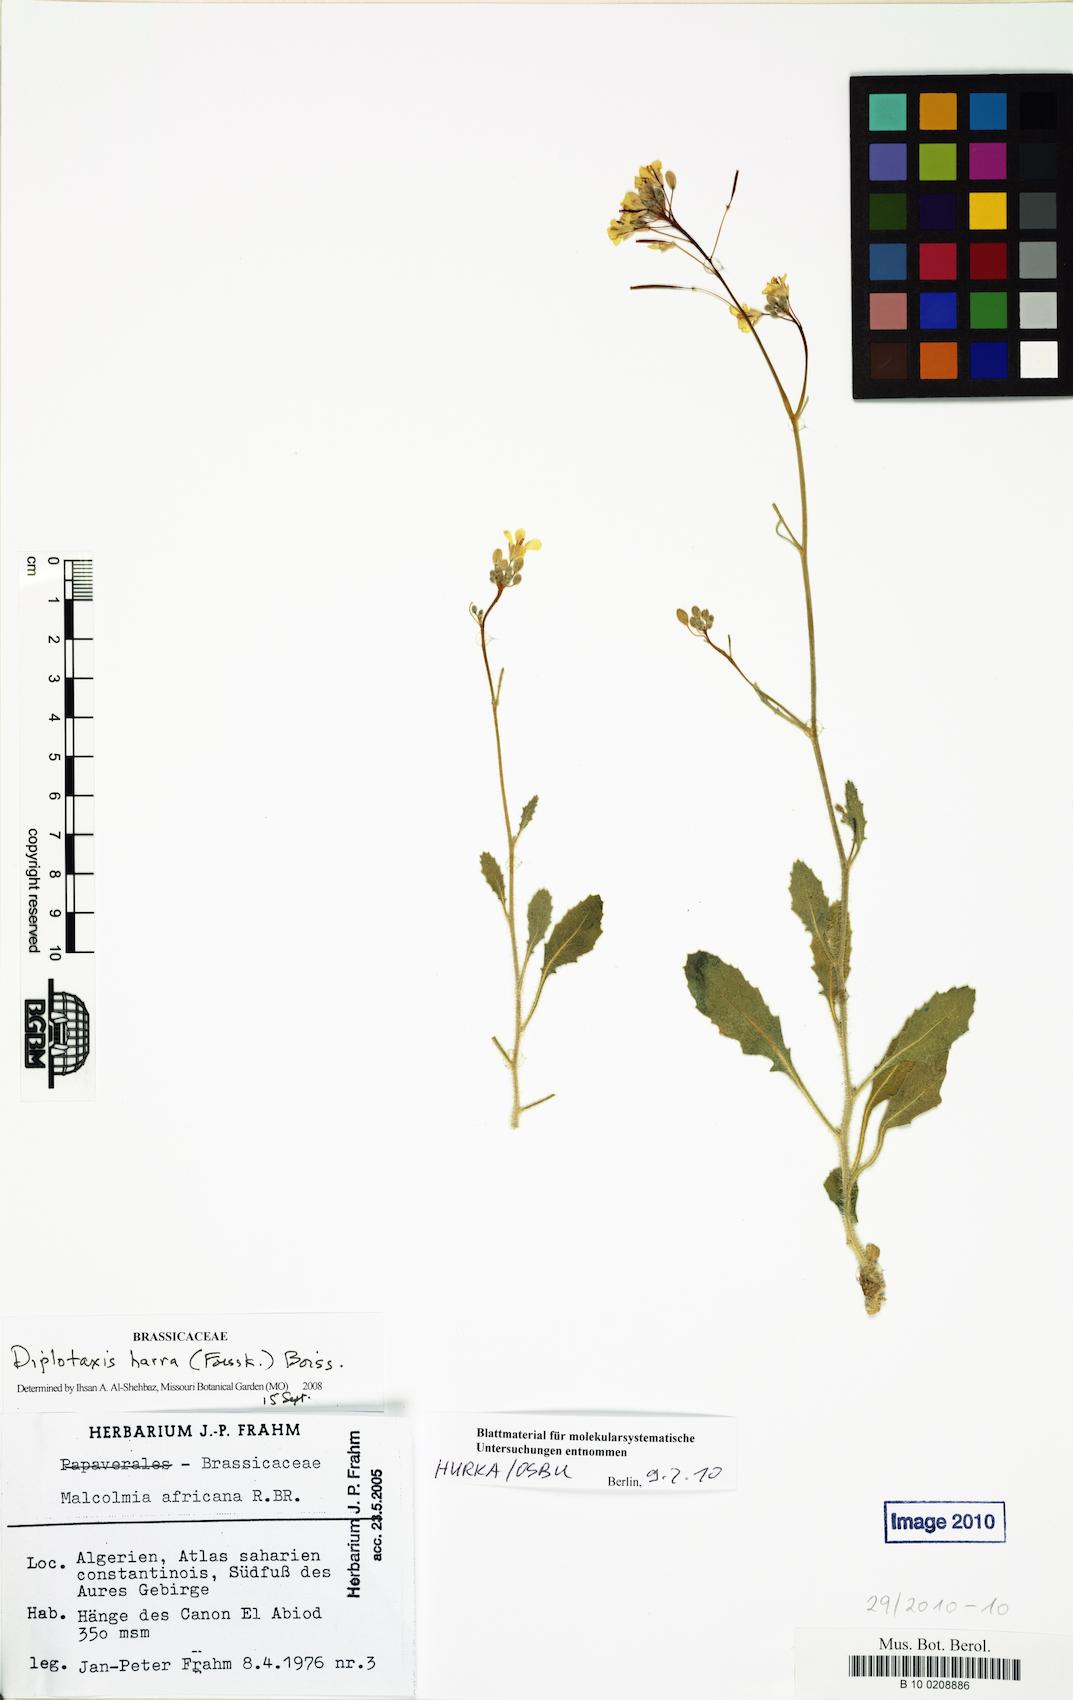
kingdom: Plantae
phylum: Tracheophyta
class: Magnoliopsida
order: Brassicales
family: Brassicaceae
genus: Diplotaxis
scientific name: Diplotaxis harra
